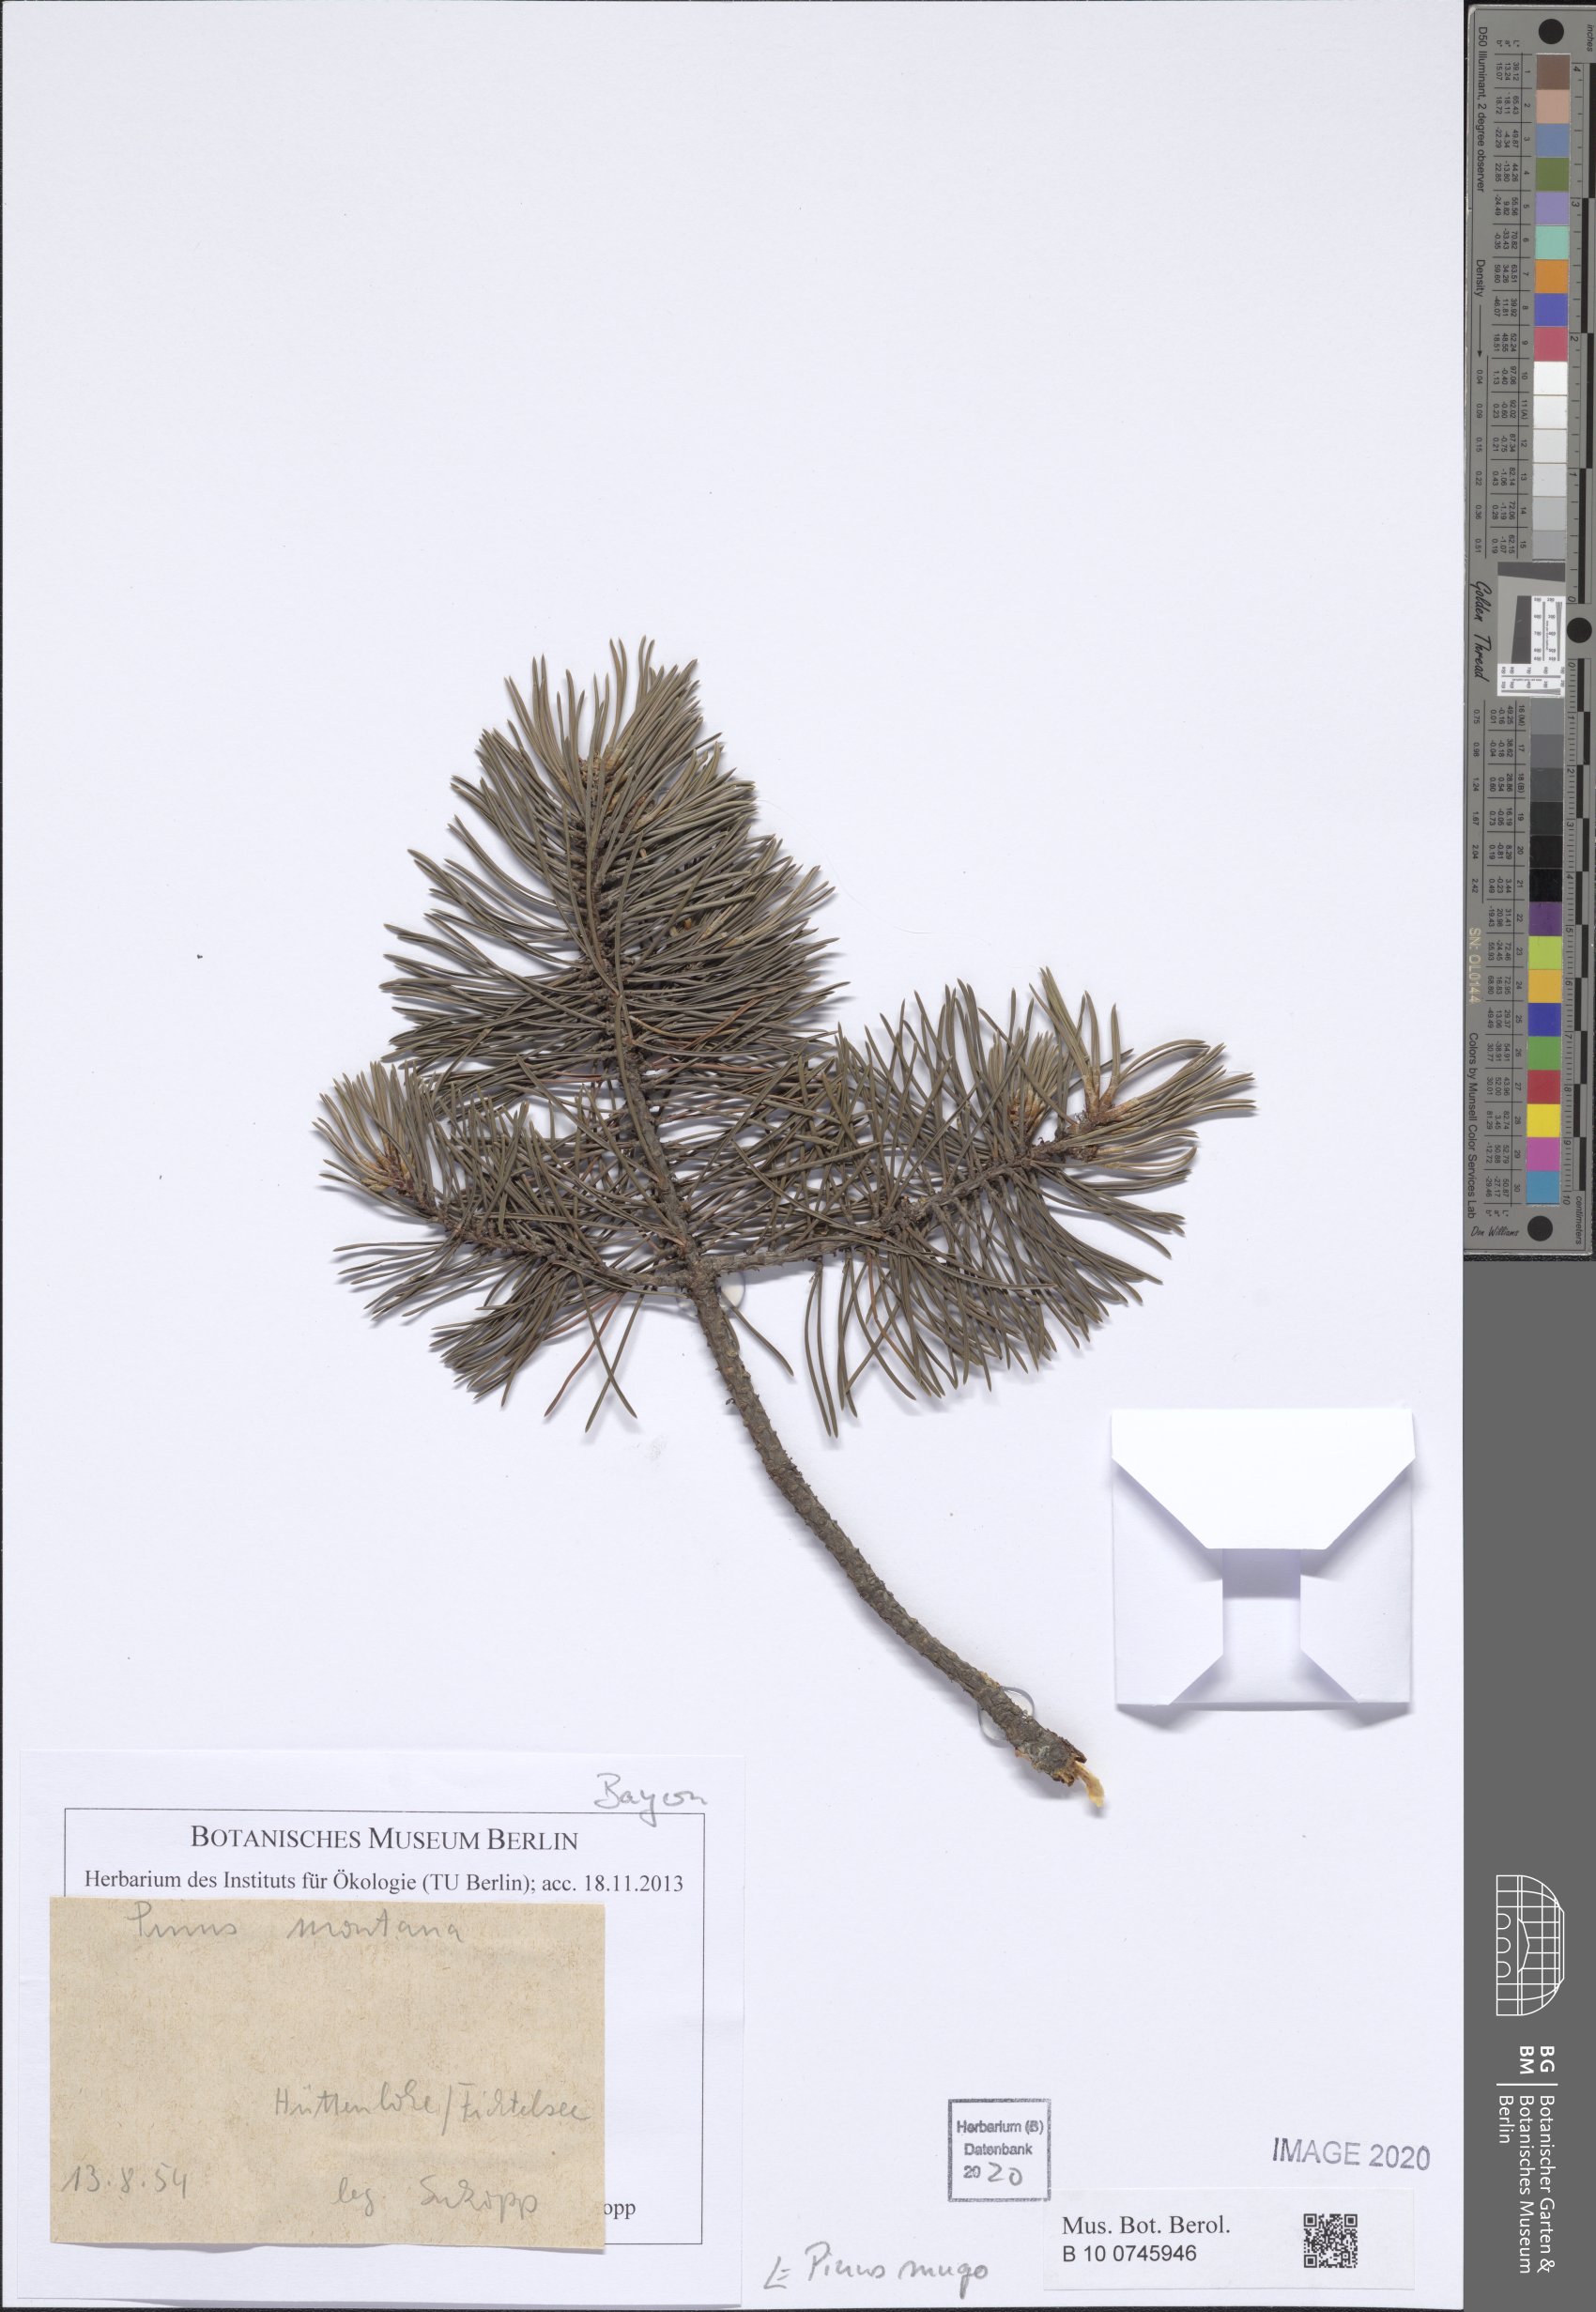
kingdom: Plantae
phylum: Tracheophyta
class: Pinopsida
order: Pinales
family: Pinaceae
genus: Pinus
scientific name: Pinus mugo
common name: Mugo pine
